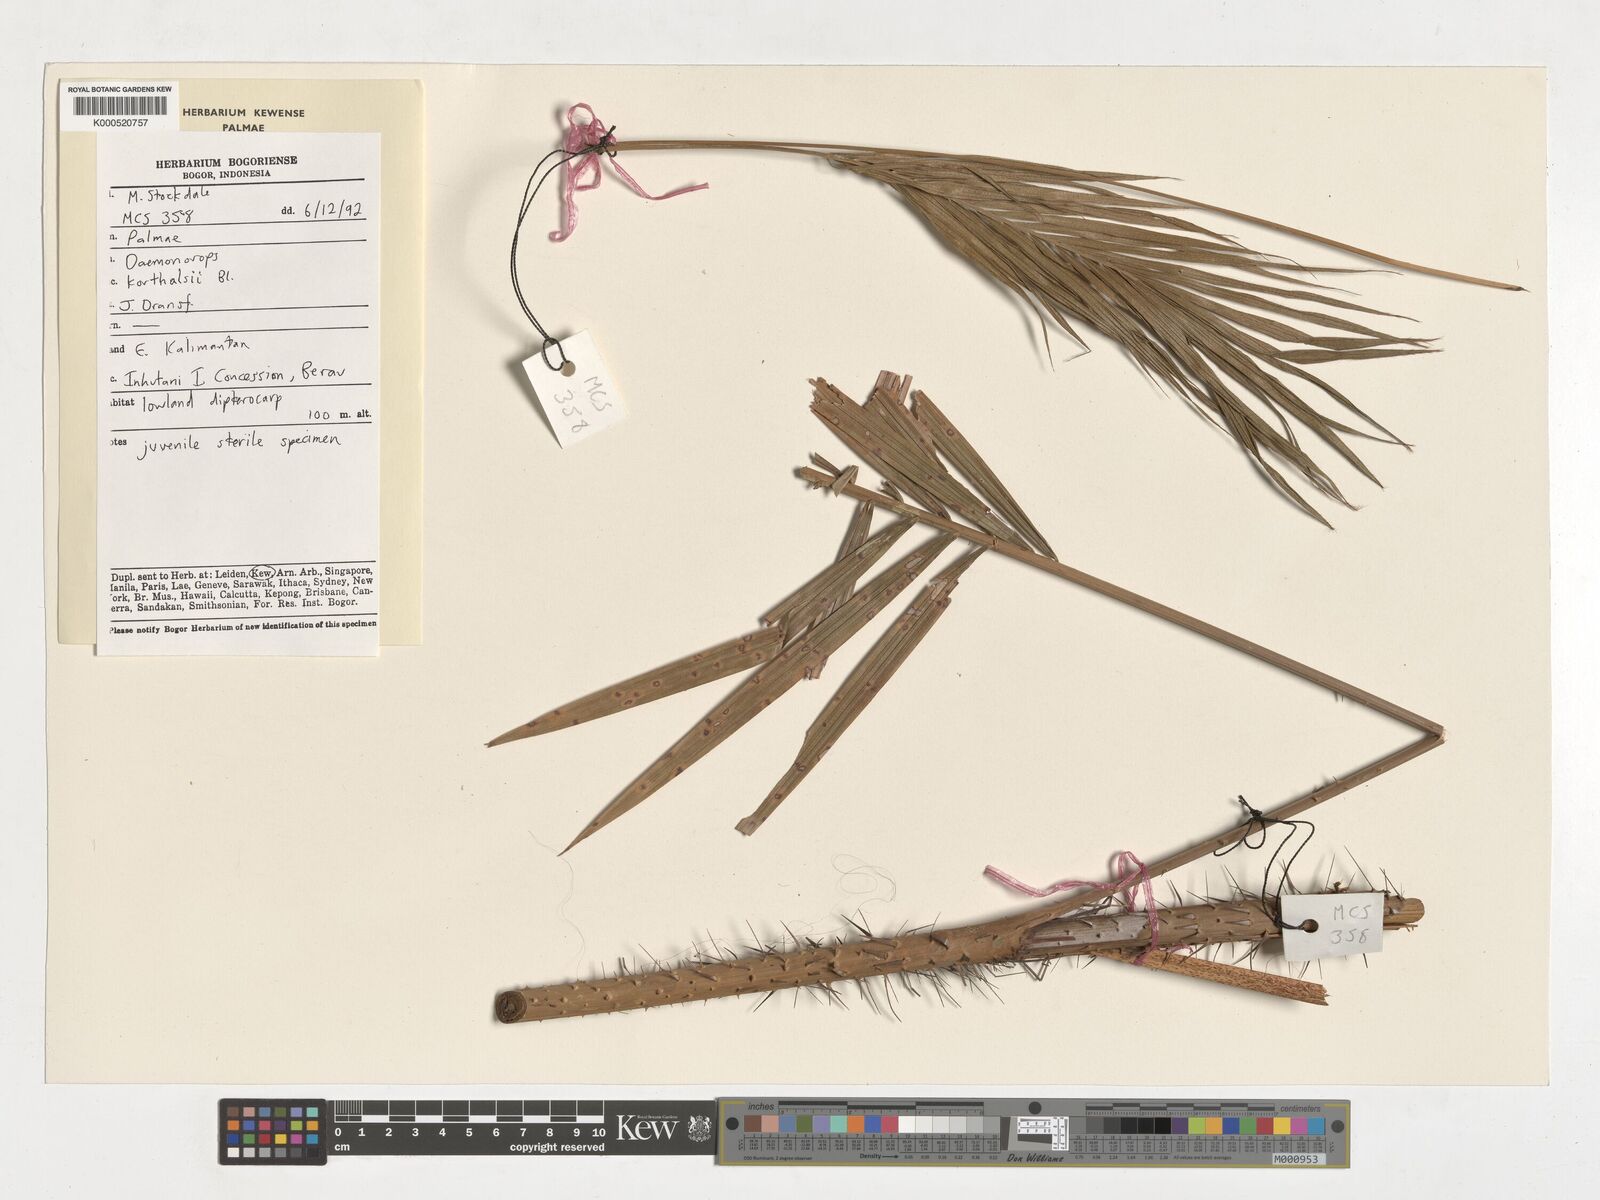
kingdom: Plantae
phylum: Tracheophyta
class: Liliopsida
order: Arecales
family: Arecaceae
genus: Calamus
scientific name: Calamus hirsutus
